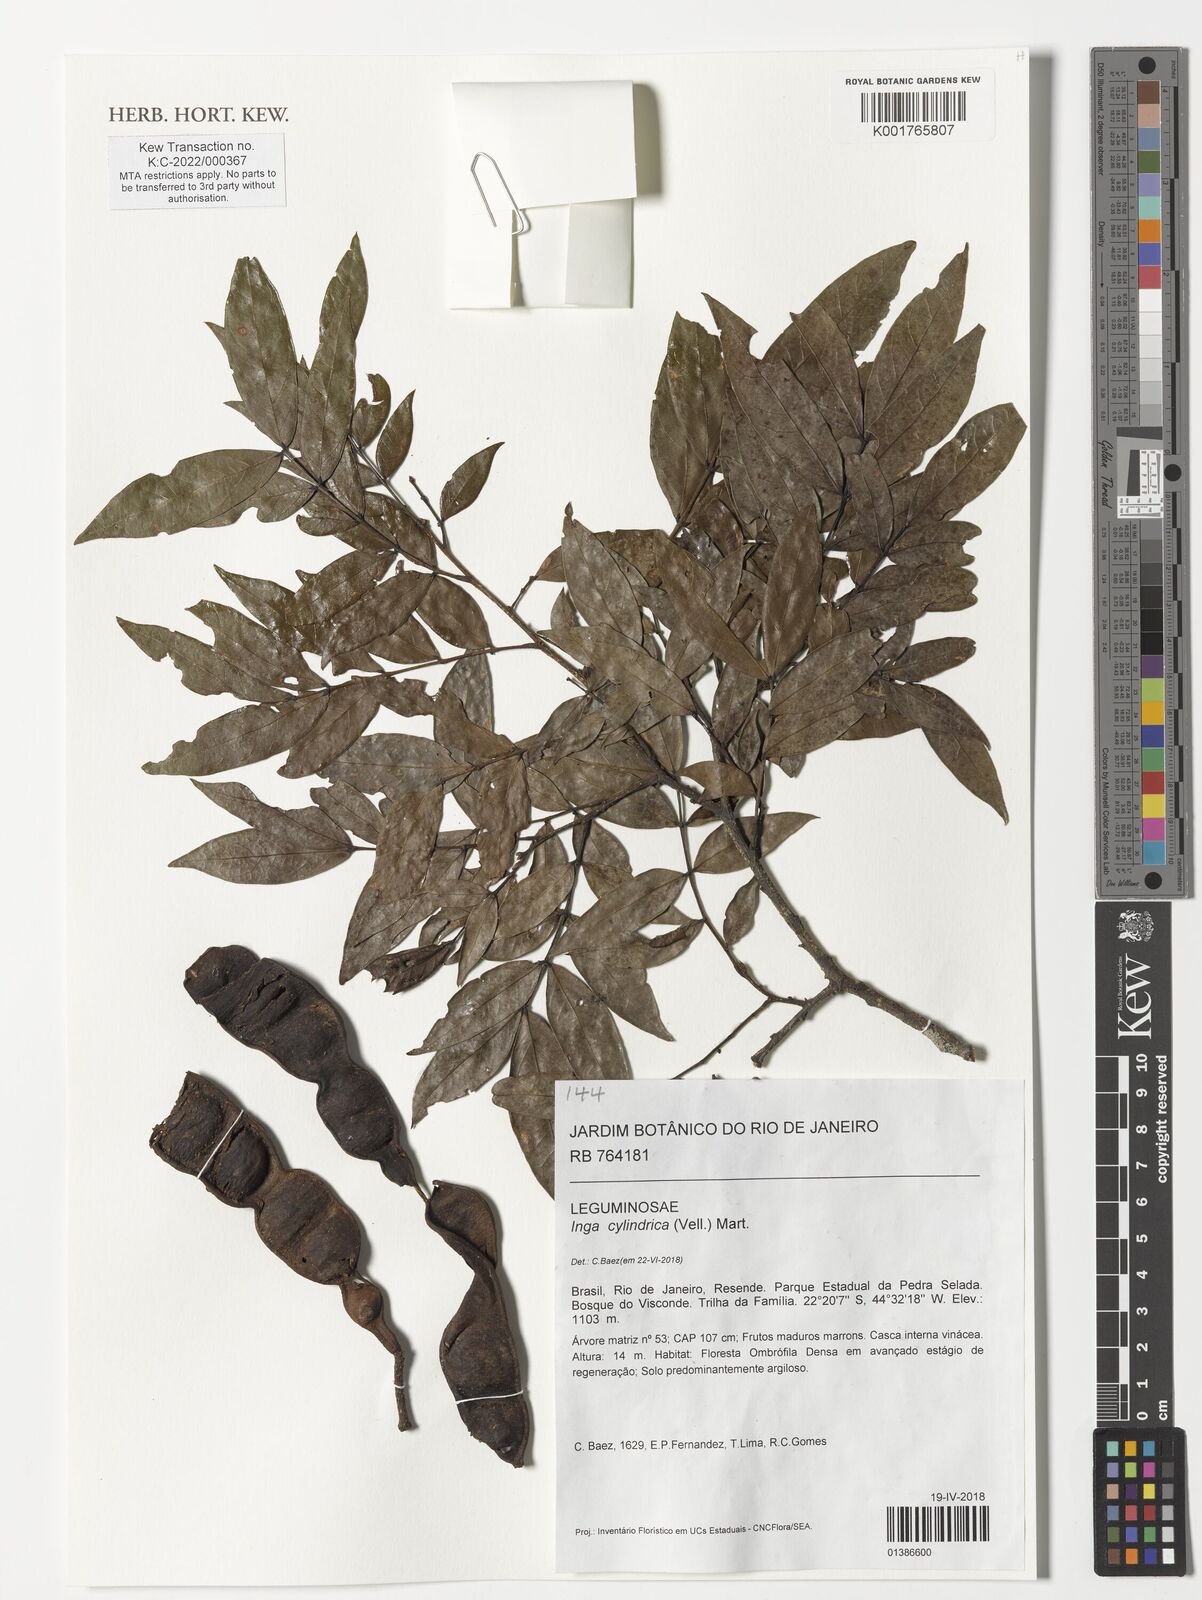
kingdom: Plantae
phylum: Tracheophyta
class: Magnoliopsida
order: Fabales
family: Fabaceae
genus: Inga
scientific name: Inga cylindrica
